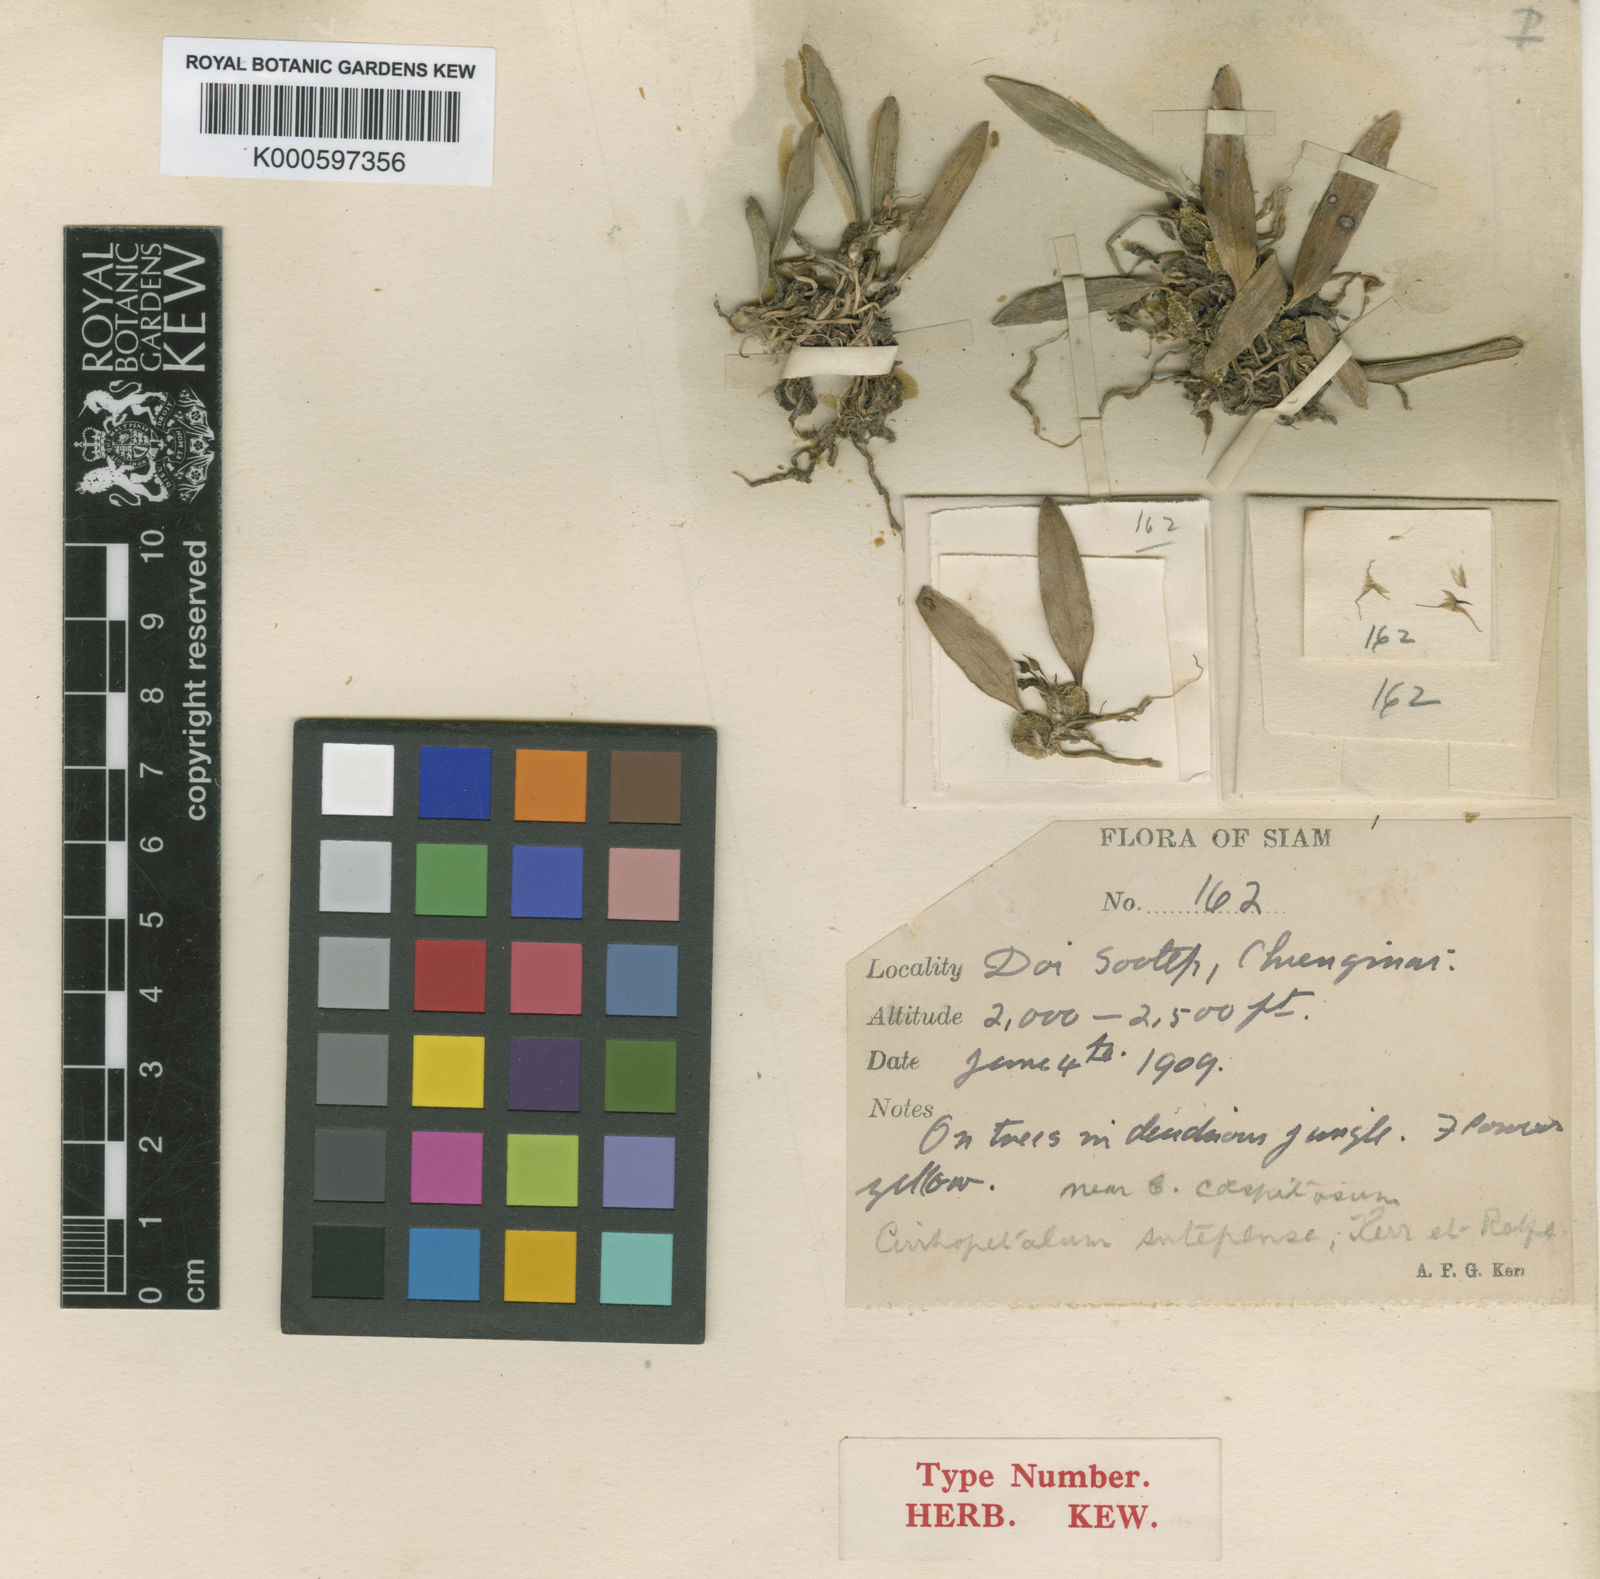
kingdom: Plantae
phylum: Tracheophyta
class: Liliopsida
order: Asparagales
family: Orchidaceae
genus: Bulbophyllum
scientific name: Bulbophyllum sutepense
